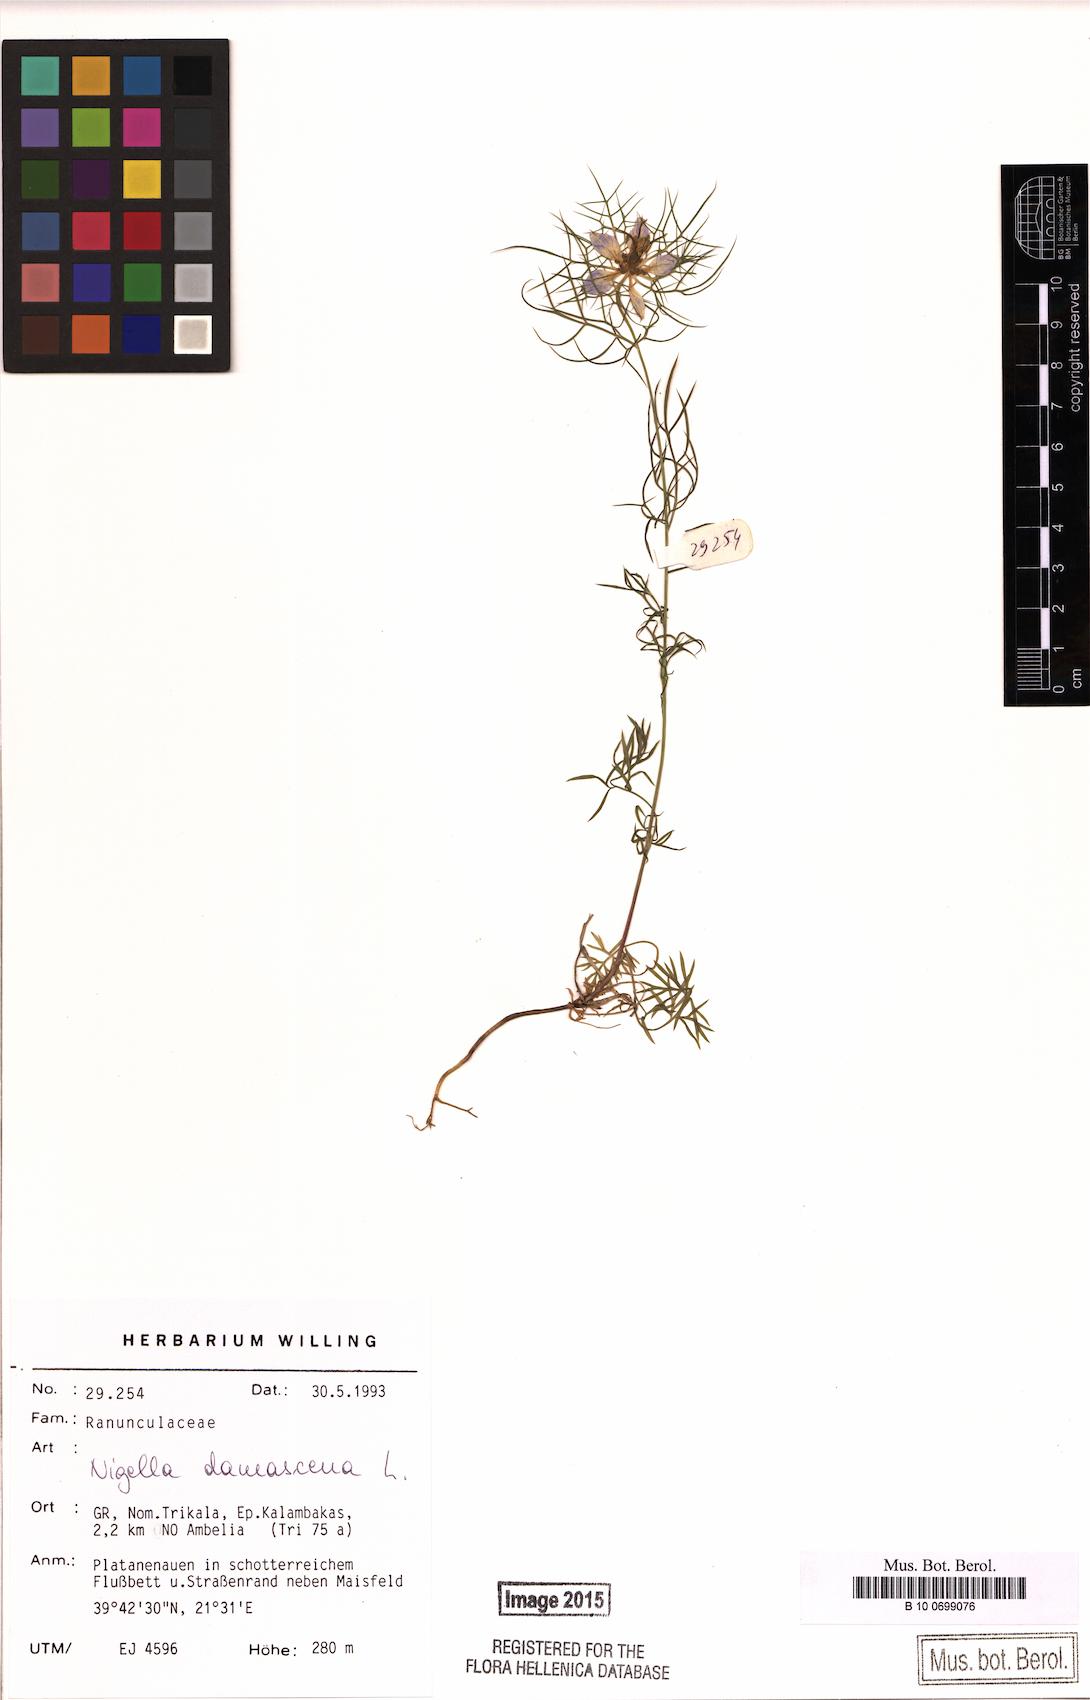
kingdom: Plantae
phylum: Tracheophyta
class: Magnoliopsida
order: Ranunculales
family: Ranunculaceae
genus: Nigella
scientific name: Nigella damascena
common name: Love-in-a-mist
